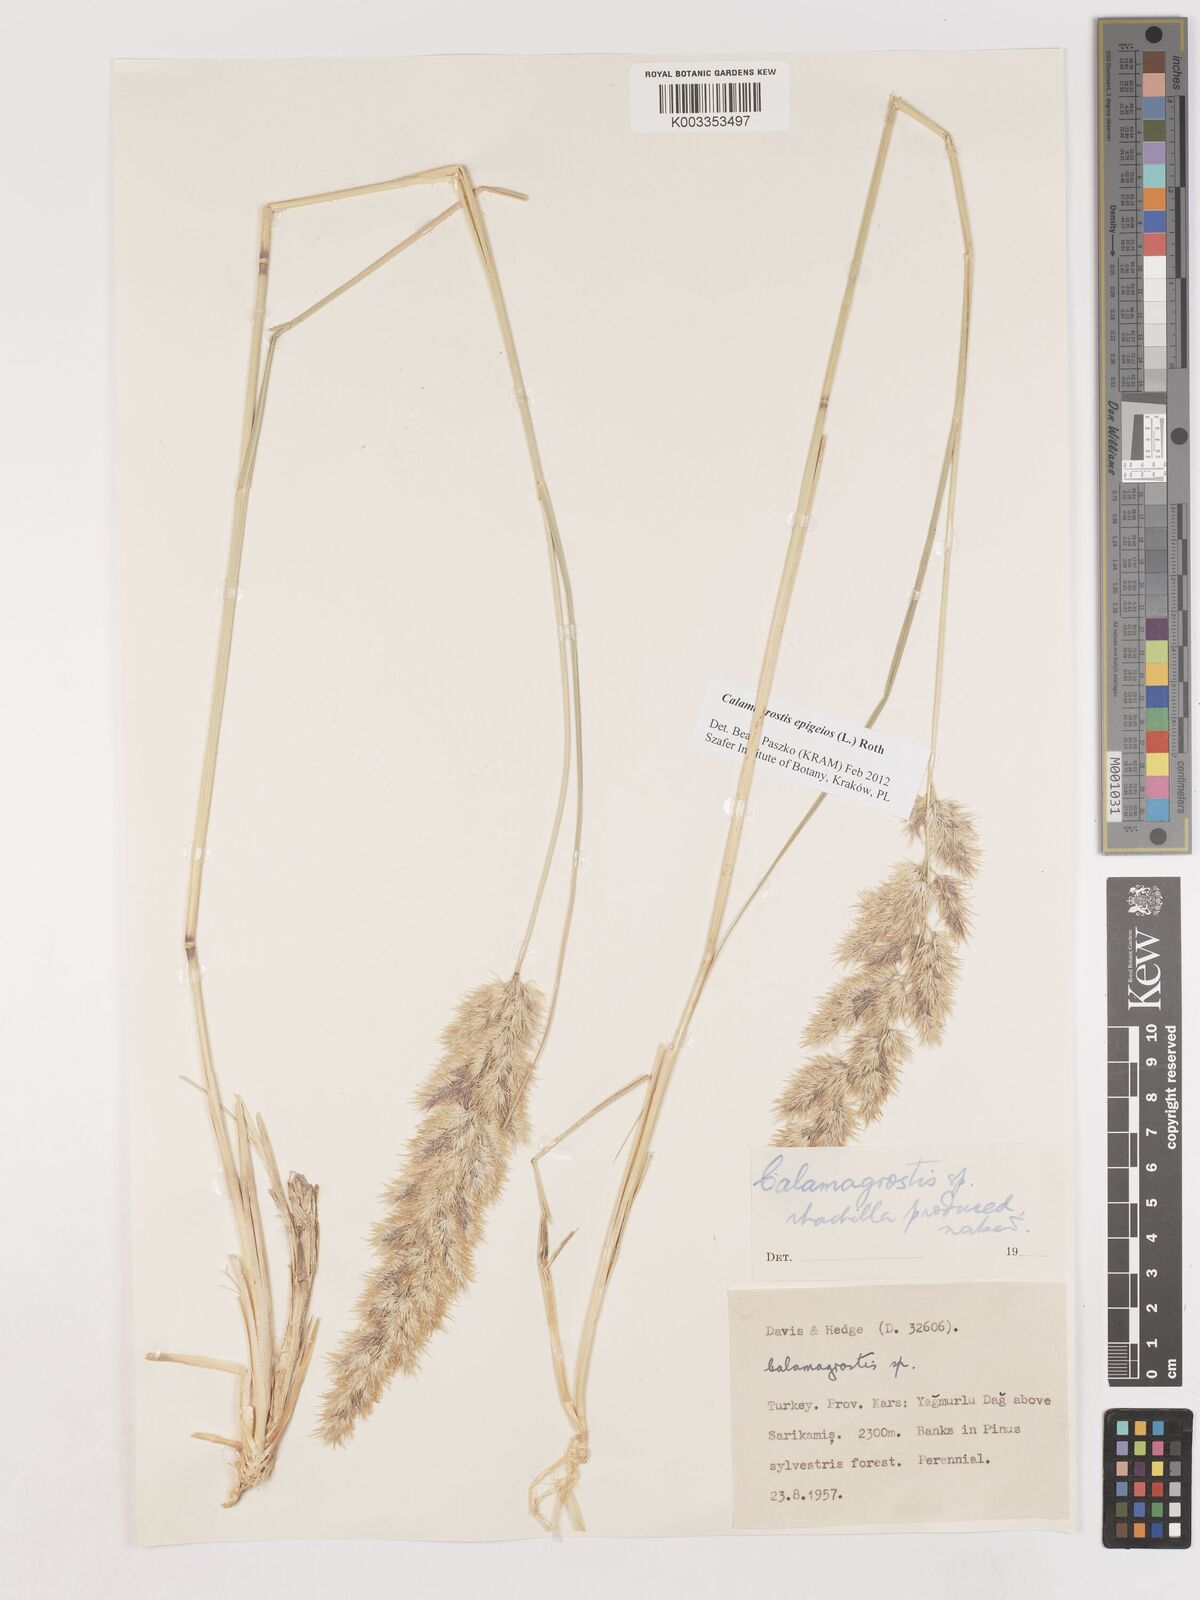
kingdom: Plantae
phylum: Tracheophyta
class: Liliopsida
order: Poales
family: Poaceae
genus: Calamagrostis
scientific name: Calamagrostis
